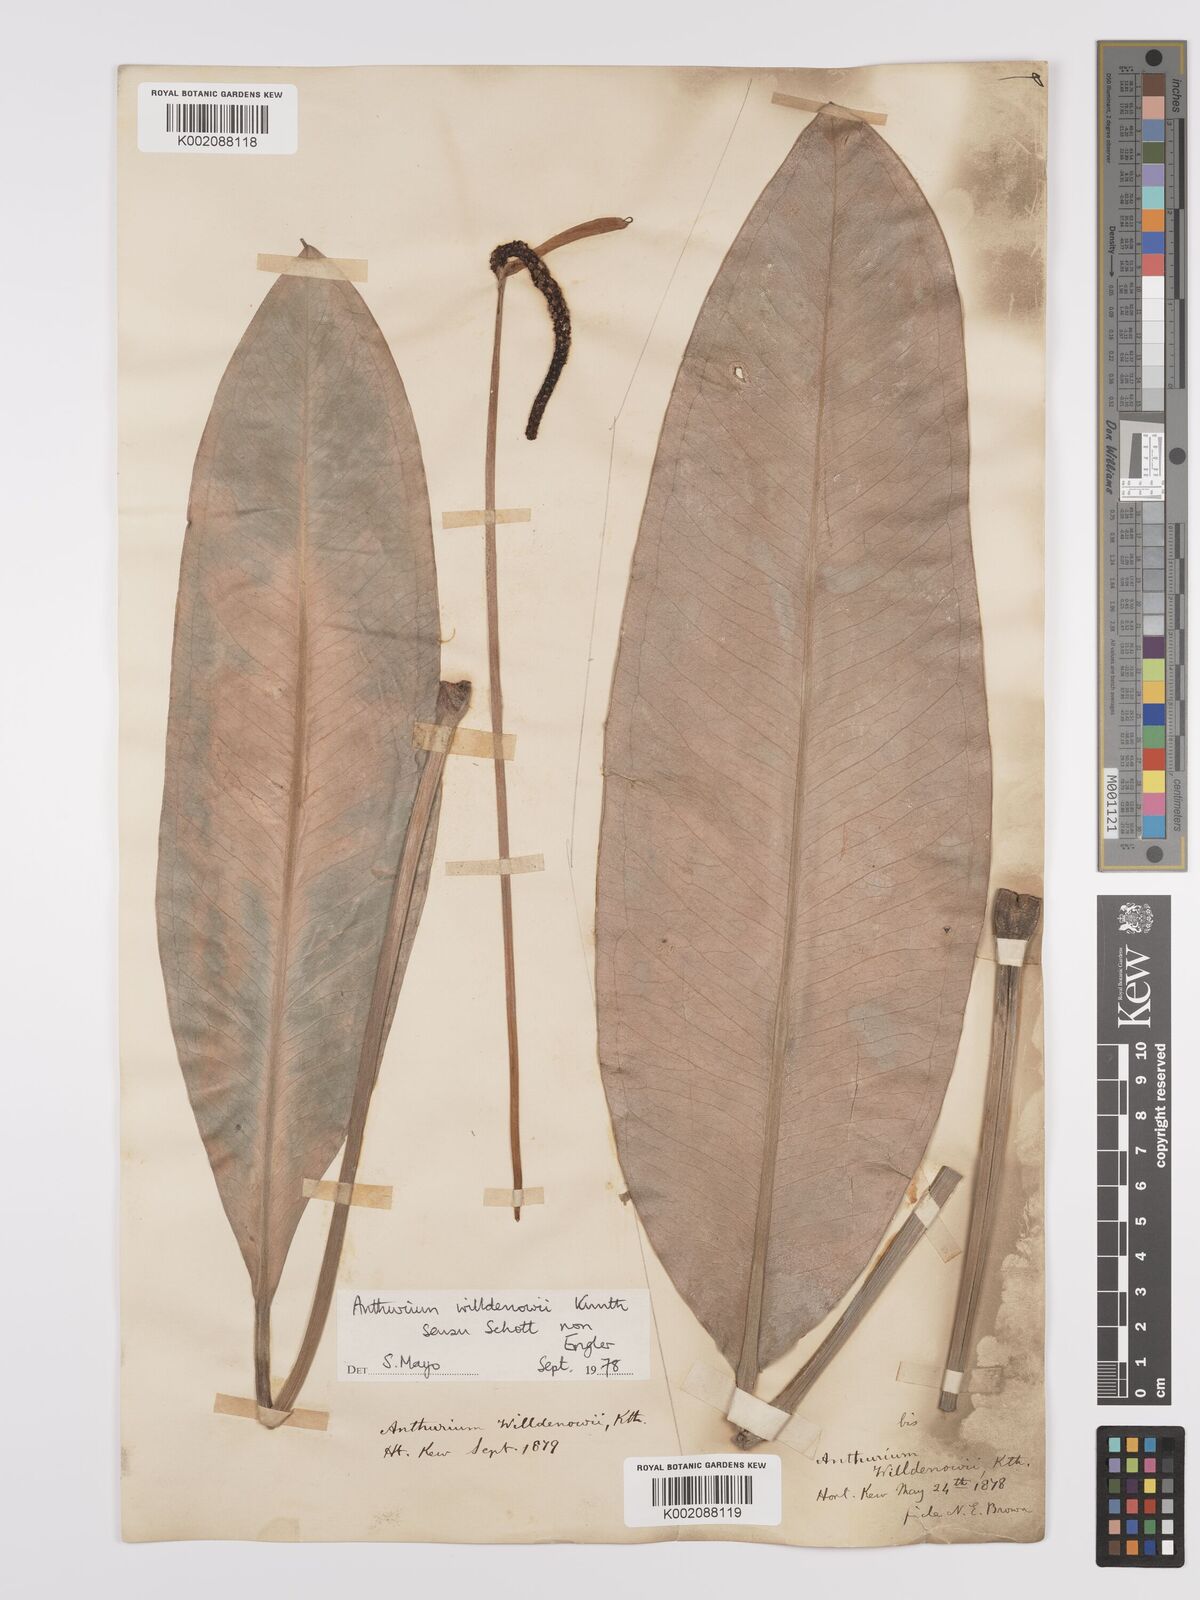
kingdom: Plantae
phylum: Tracheophyta
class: Liliopsida
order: Alismatales
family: Araceae
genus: Anthurium
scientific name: Anthurium willdenowii
